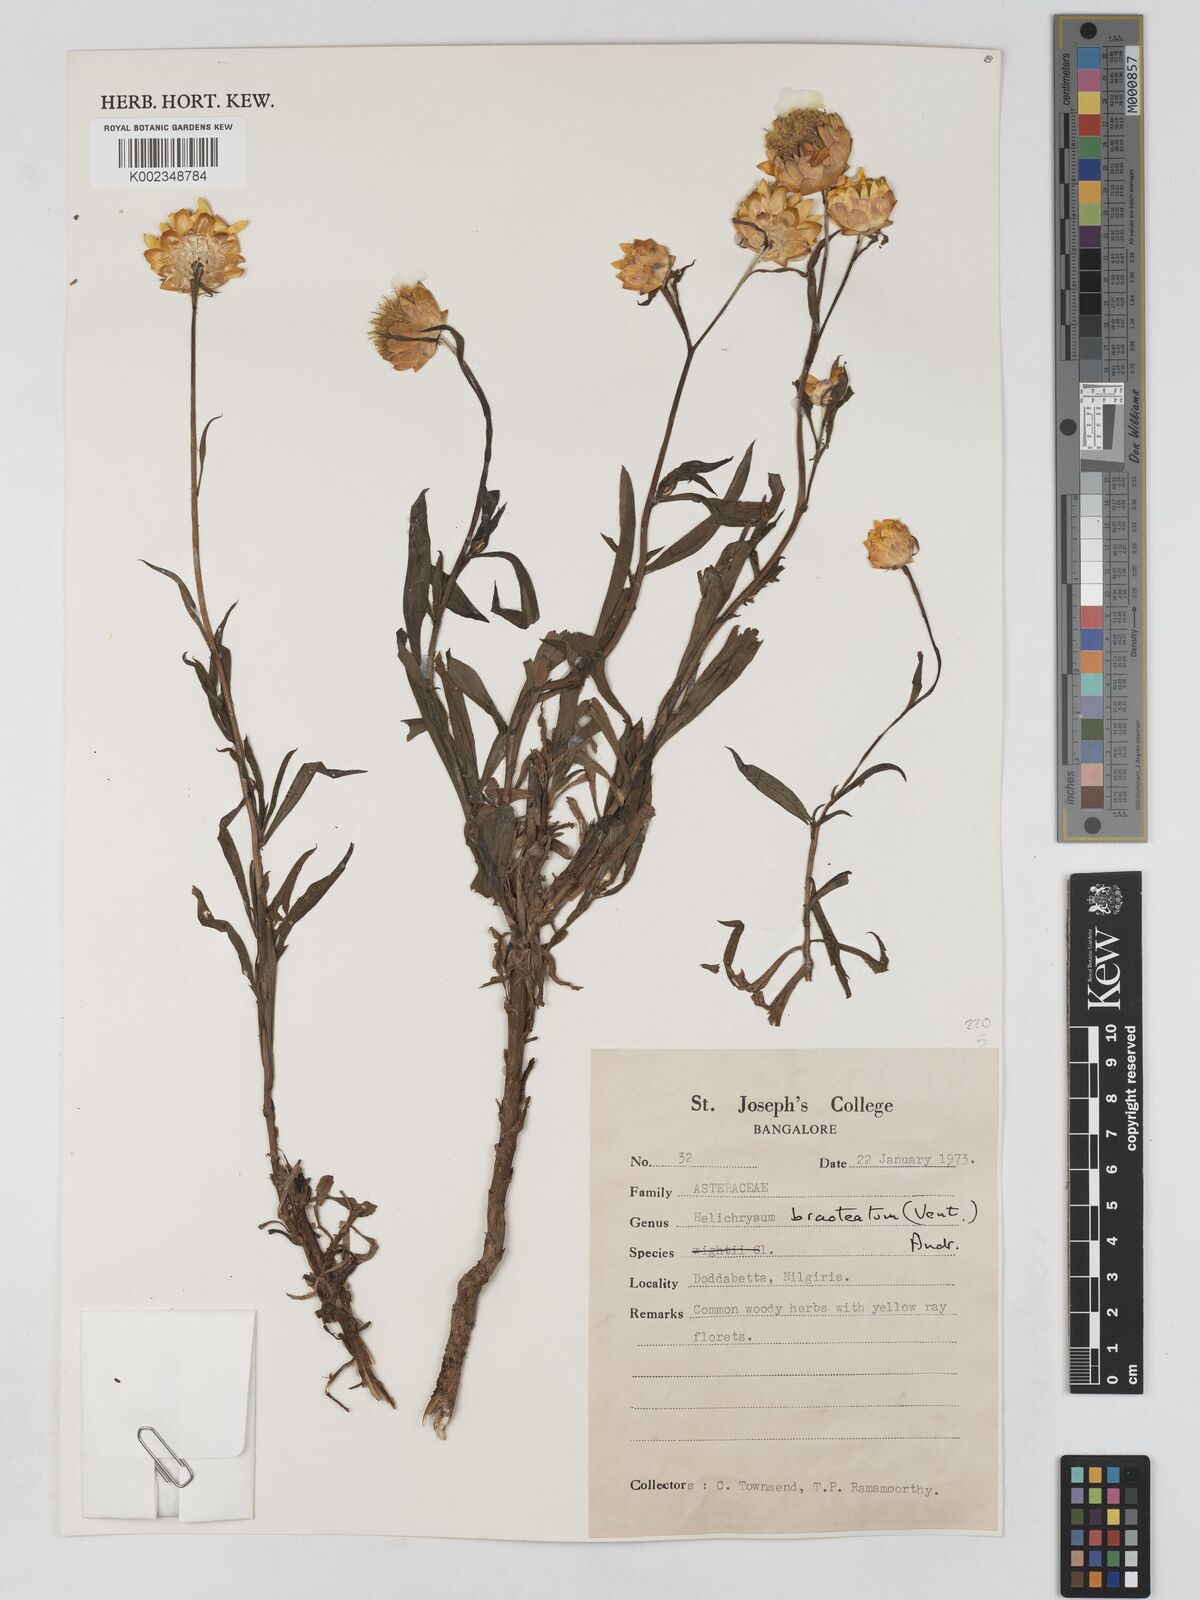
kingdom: Plantae
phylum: Tracheophyta
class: Magnoliopsida
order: Asterales
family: Asteraceae
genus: Xerochrysum
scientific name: Xerochrysum bracteatum
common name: Bracted strawflower
